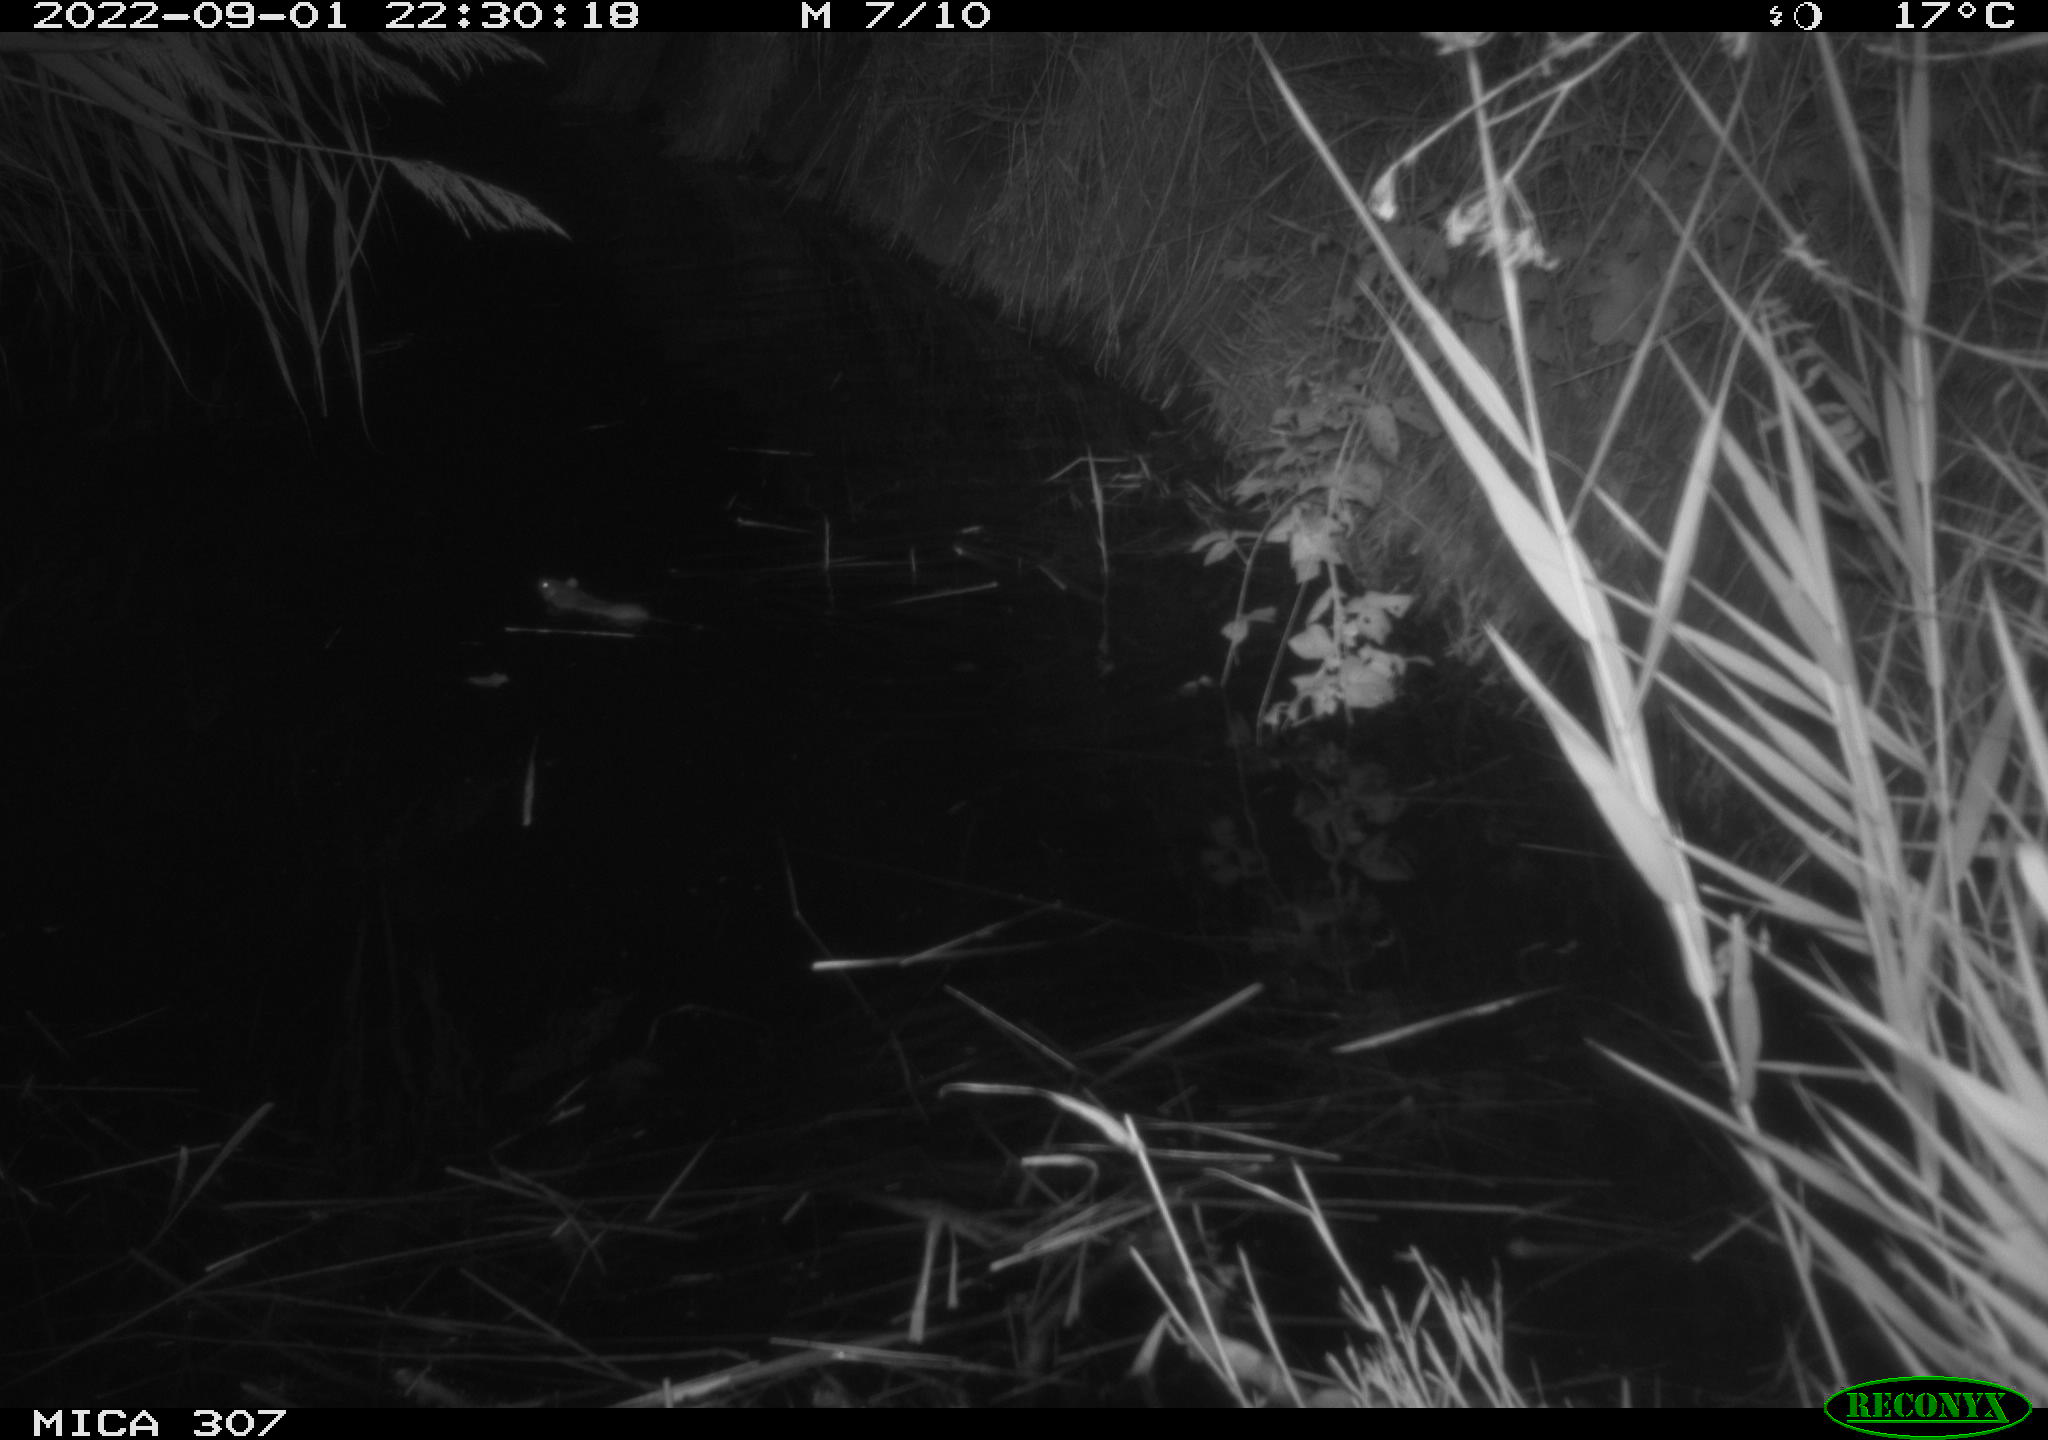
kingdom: Animalia
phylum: Chordata
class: Mammalia
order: Rodentia
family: Muridae
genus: Rattus
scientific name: Rattus norvegicus
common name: Brown rat
